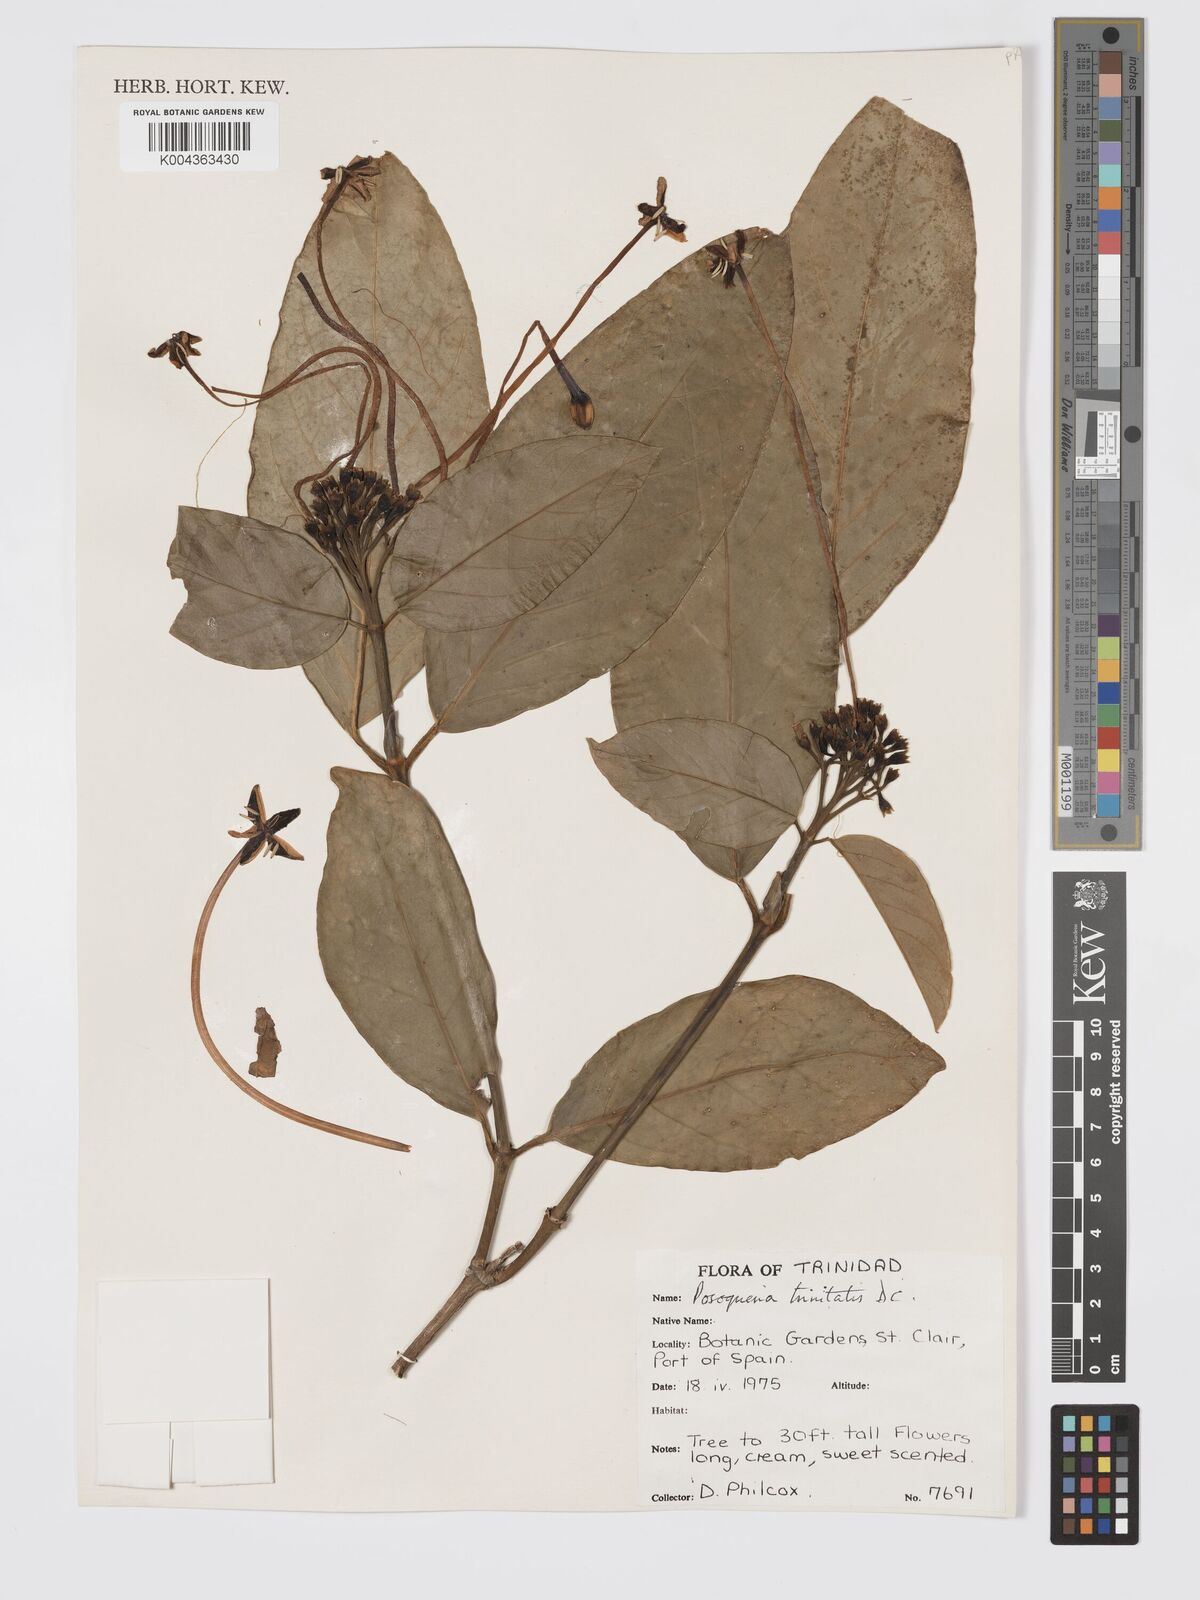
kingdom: Plantae
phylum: Tracheophyta
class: Magnoliopsida
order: Gentianales
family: Rubiaceae
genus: Posoqueria
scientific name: Posoqueria trinitatis
